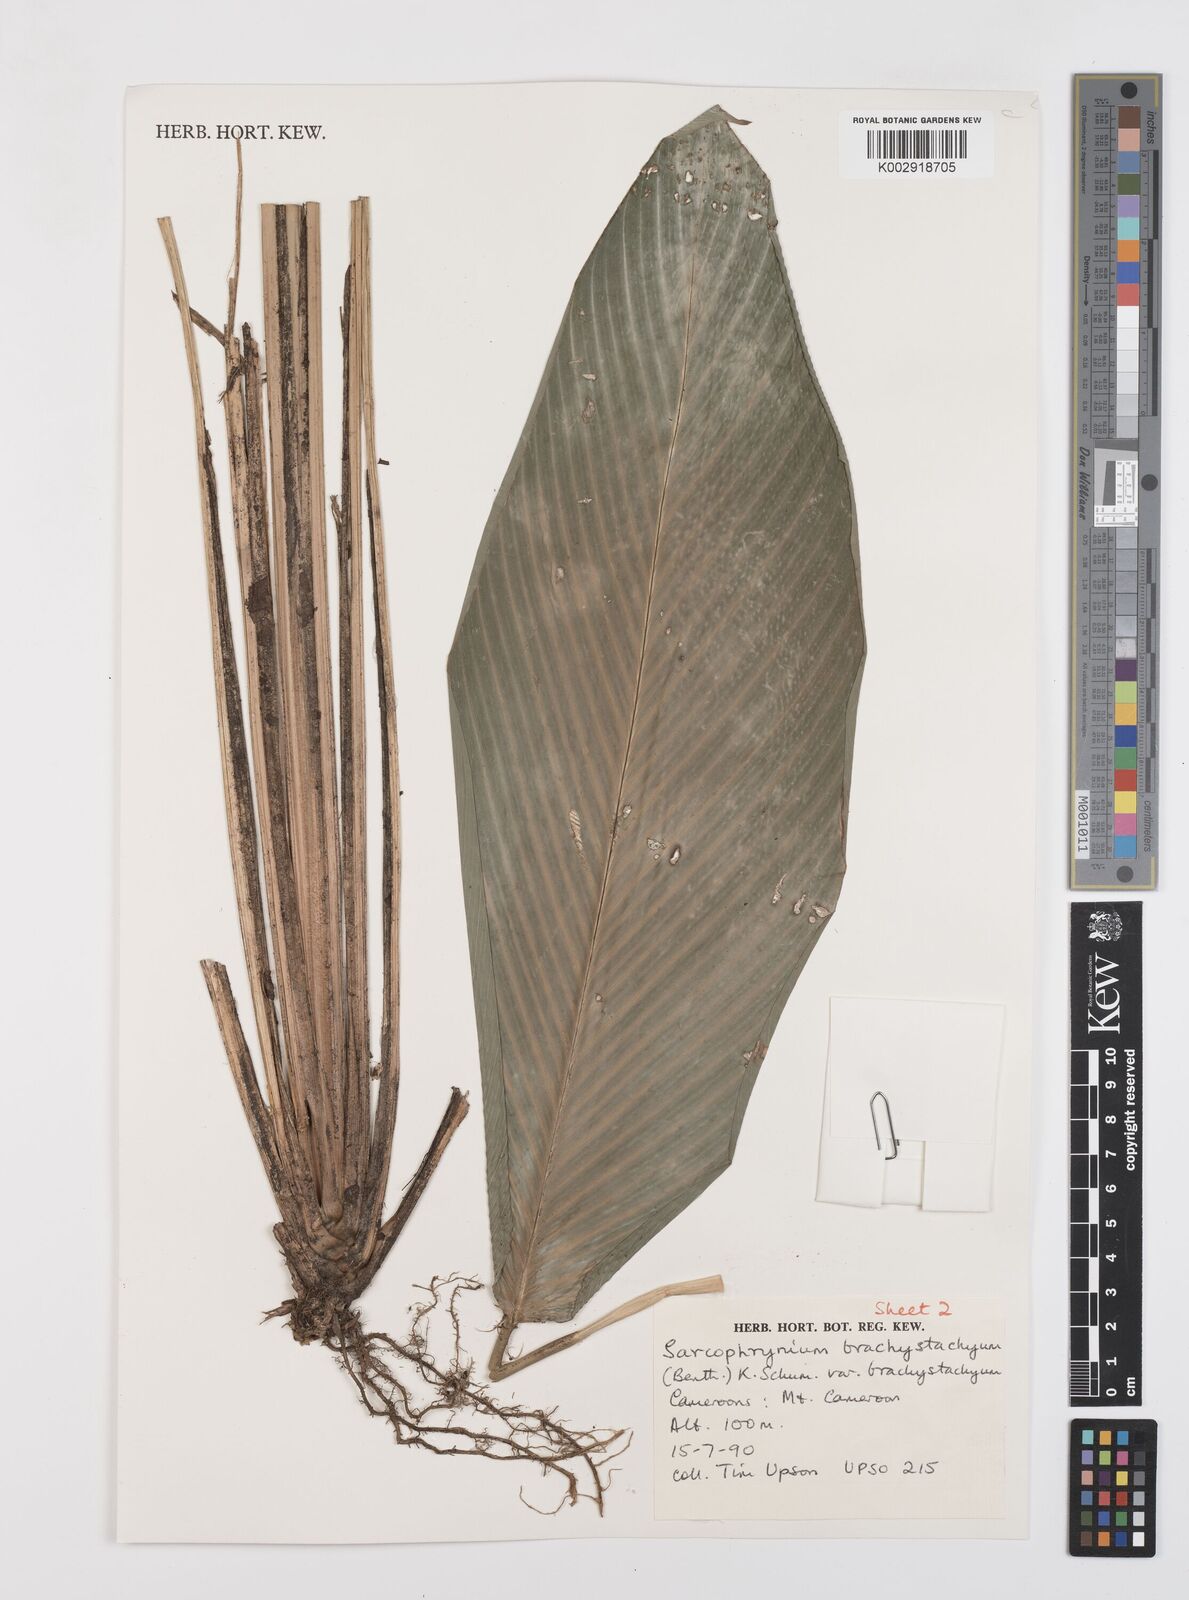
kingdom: Plantae
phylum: Tracheophyta
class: Liliopsida
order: Zingiberales
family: Marantaceae
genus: Sarcophrynium
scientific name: Sarcophrynium brachystachyum
